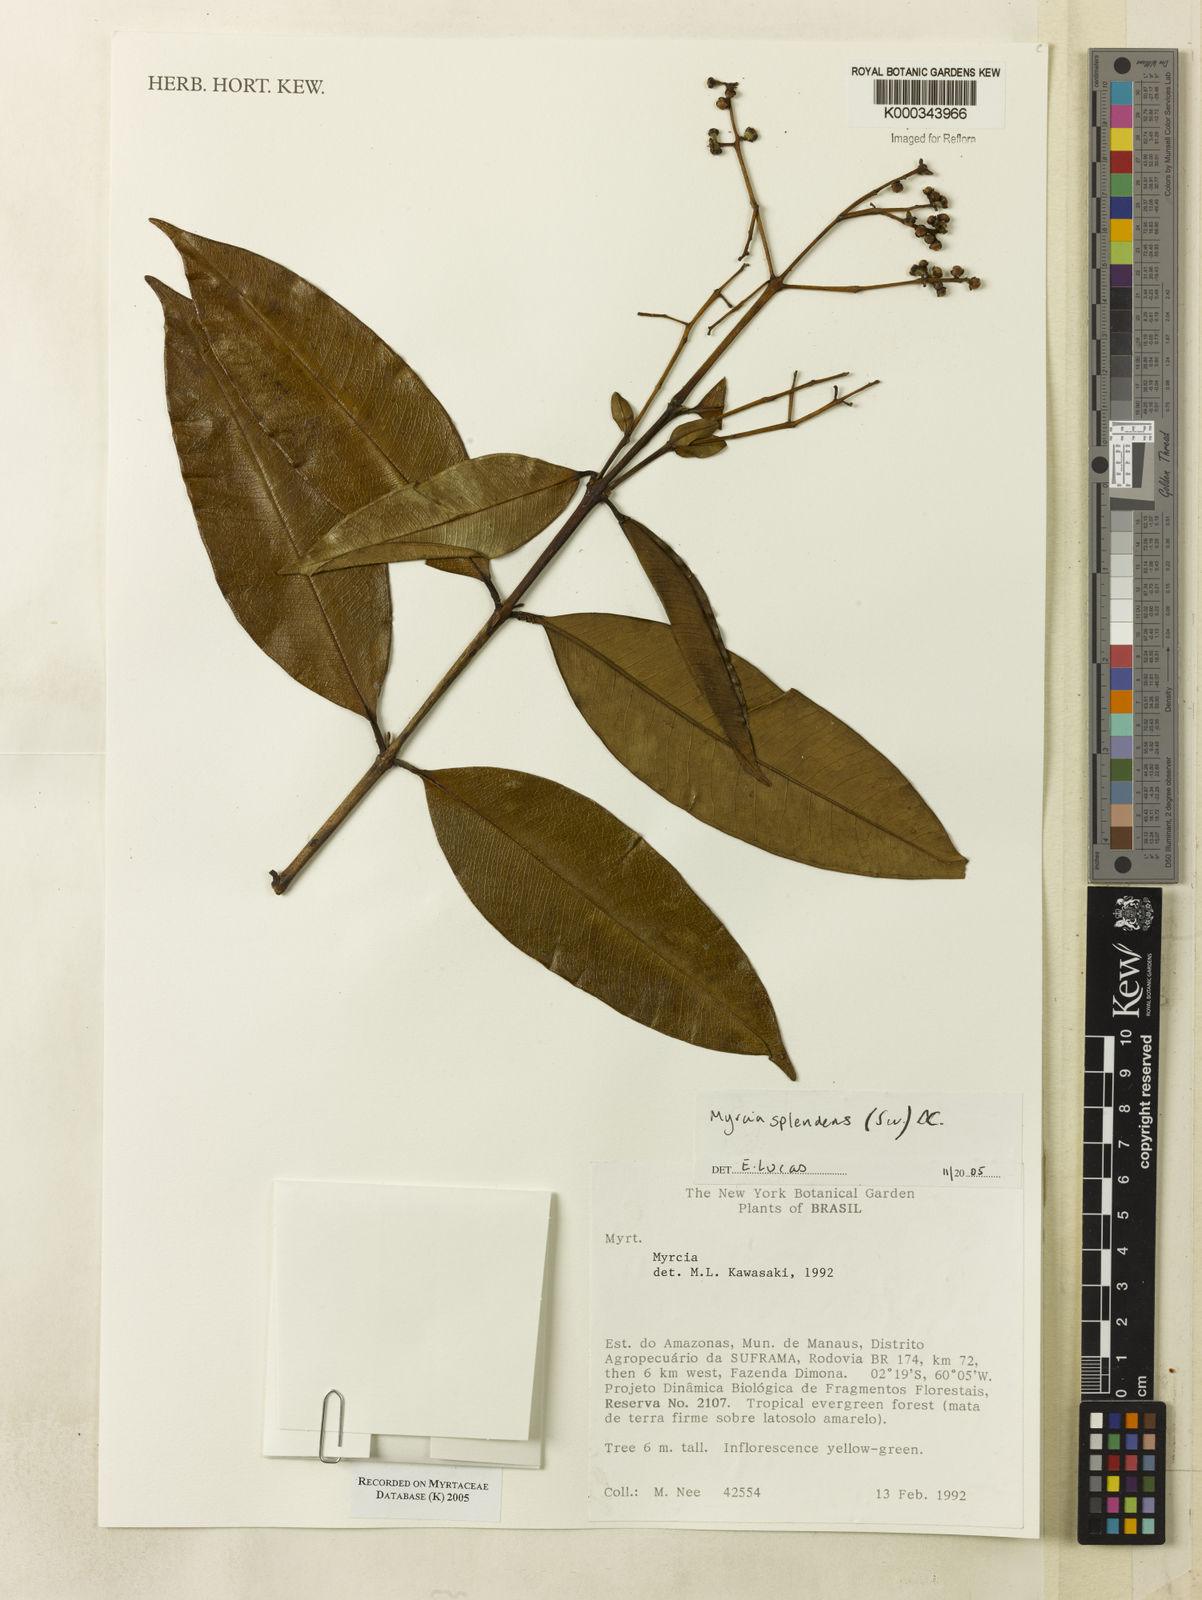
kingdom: Plantae
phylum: Tracheophyta
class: Magnoliopsida
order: Myrtales
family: Myrtaceae
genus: Myrcia
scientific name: Myrcia splendens
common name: Surinam cherry
